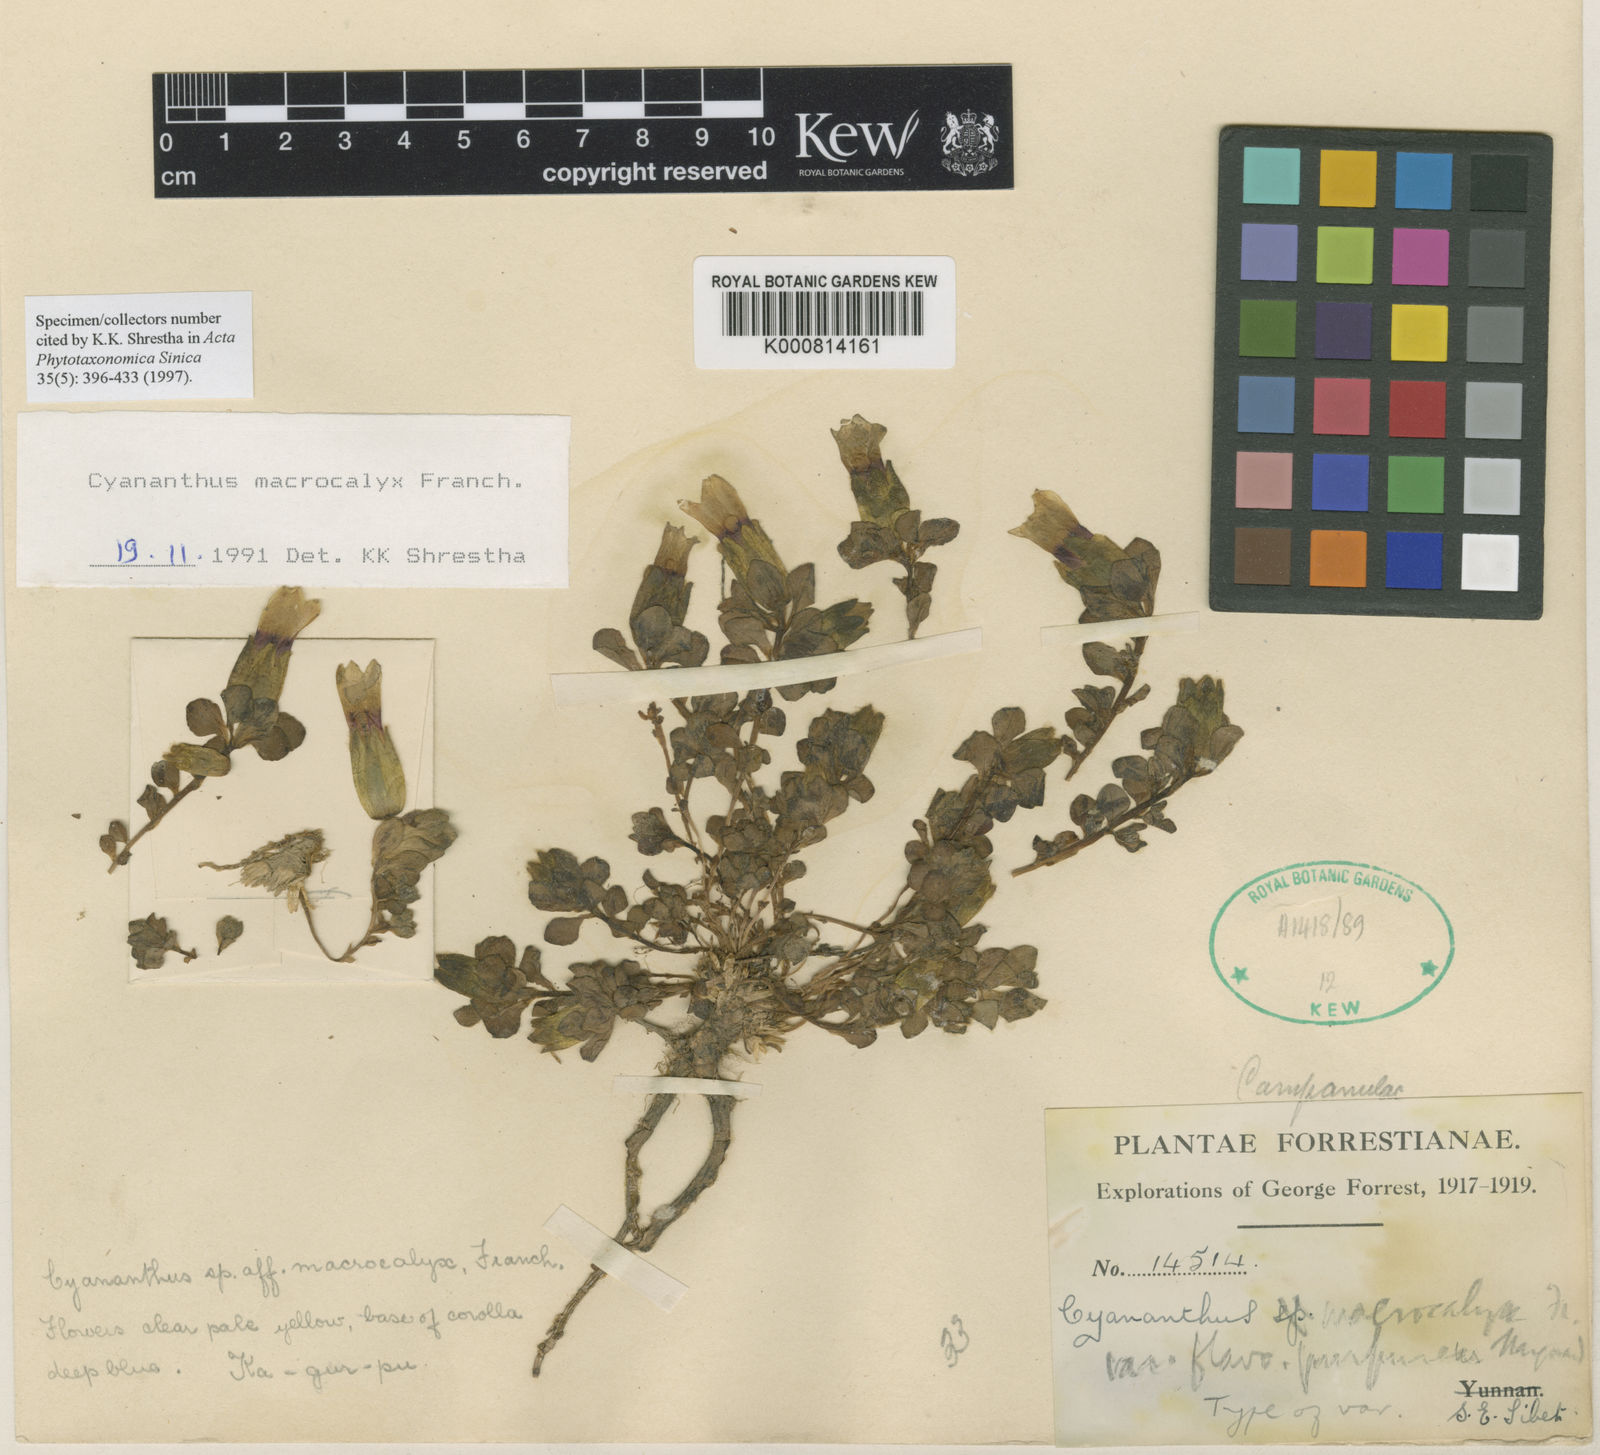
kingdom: Plantae
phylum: Tracheophyta
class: Magnoliopsida
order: Asterales
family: Campanulaceae
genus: Cyananthus
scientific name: Cyananthus macrocalyx
